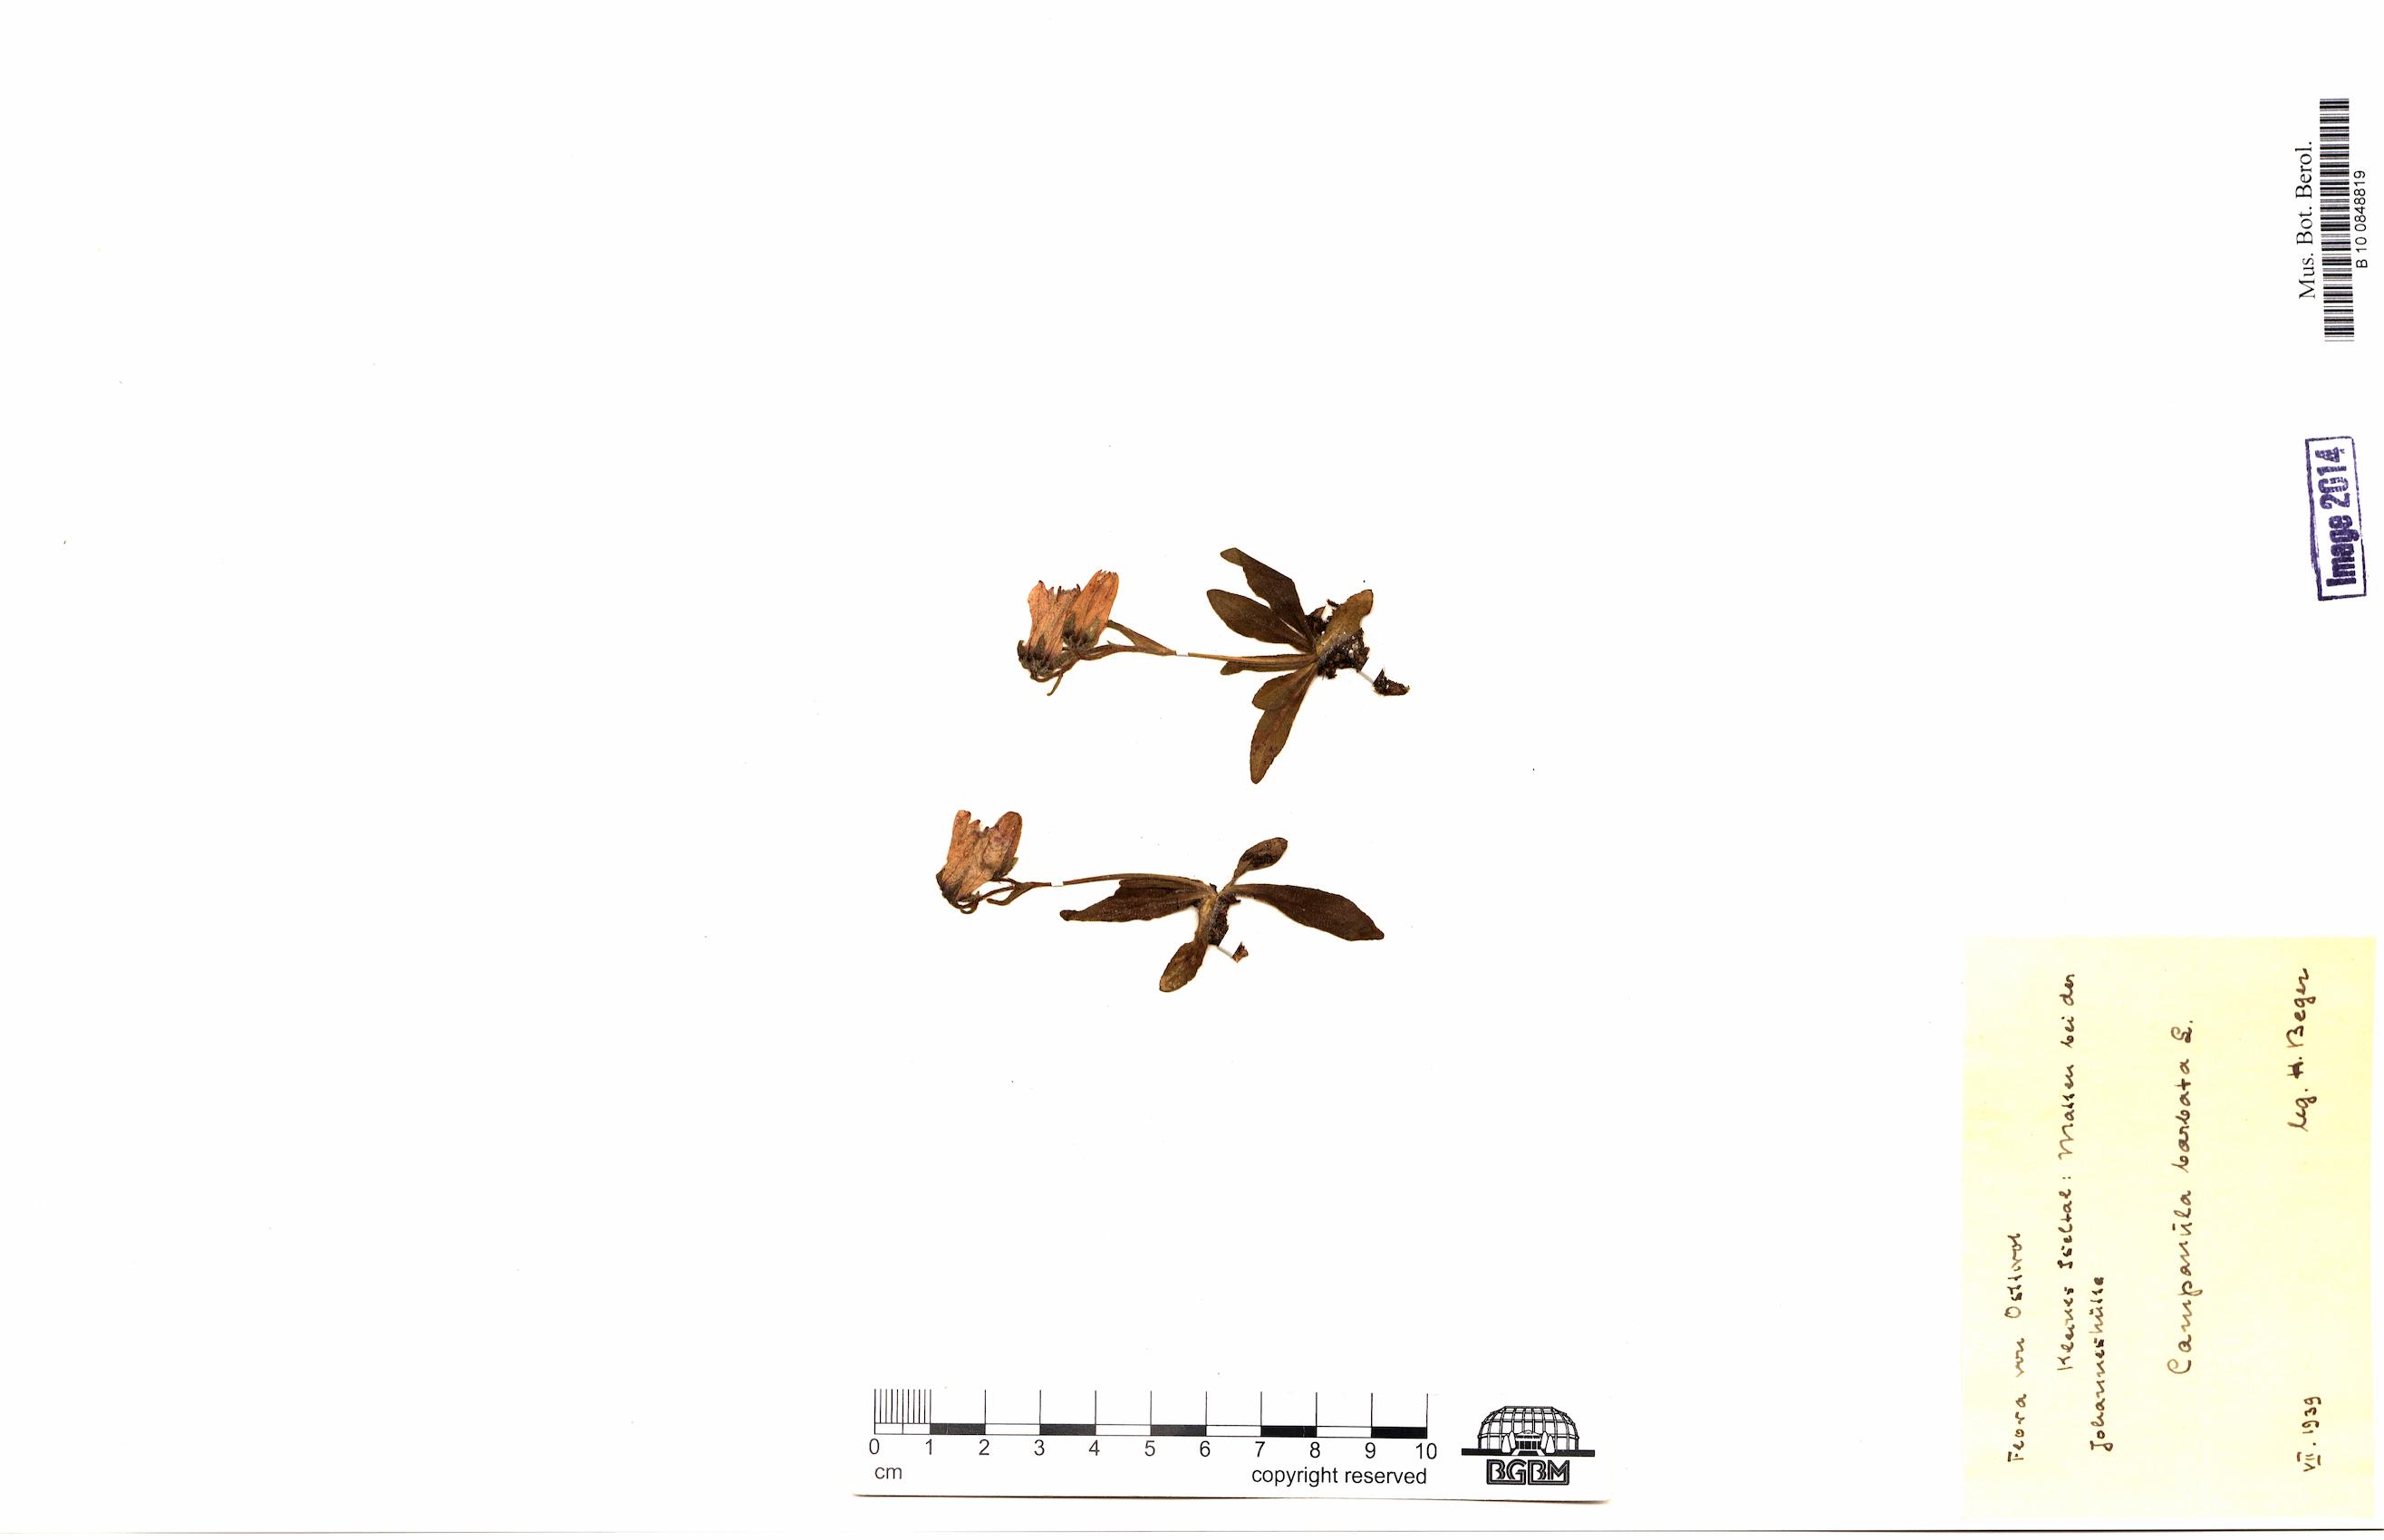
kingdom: Plantae
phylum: Tracheophyta
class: Magnoliopsida
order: Asterales
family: Campanulaceae
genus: Campanula
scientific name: Campanula barbata
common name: Bearded bellflower
